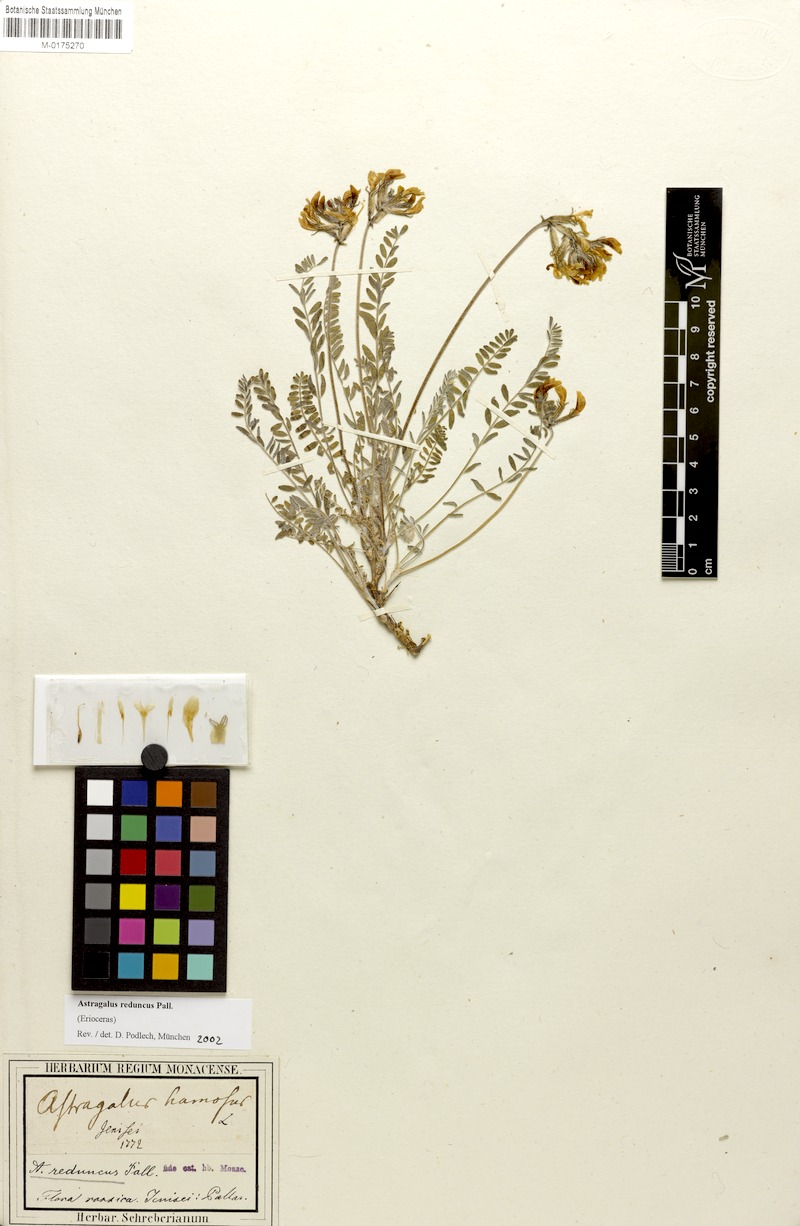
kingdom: Plantae
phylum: Tracheophyta
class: Magnoliopsida
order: Fabales
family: Fabaceae
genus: Astragalus
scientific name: Astragalus reduncus
